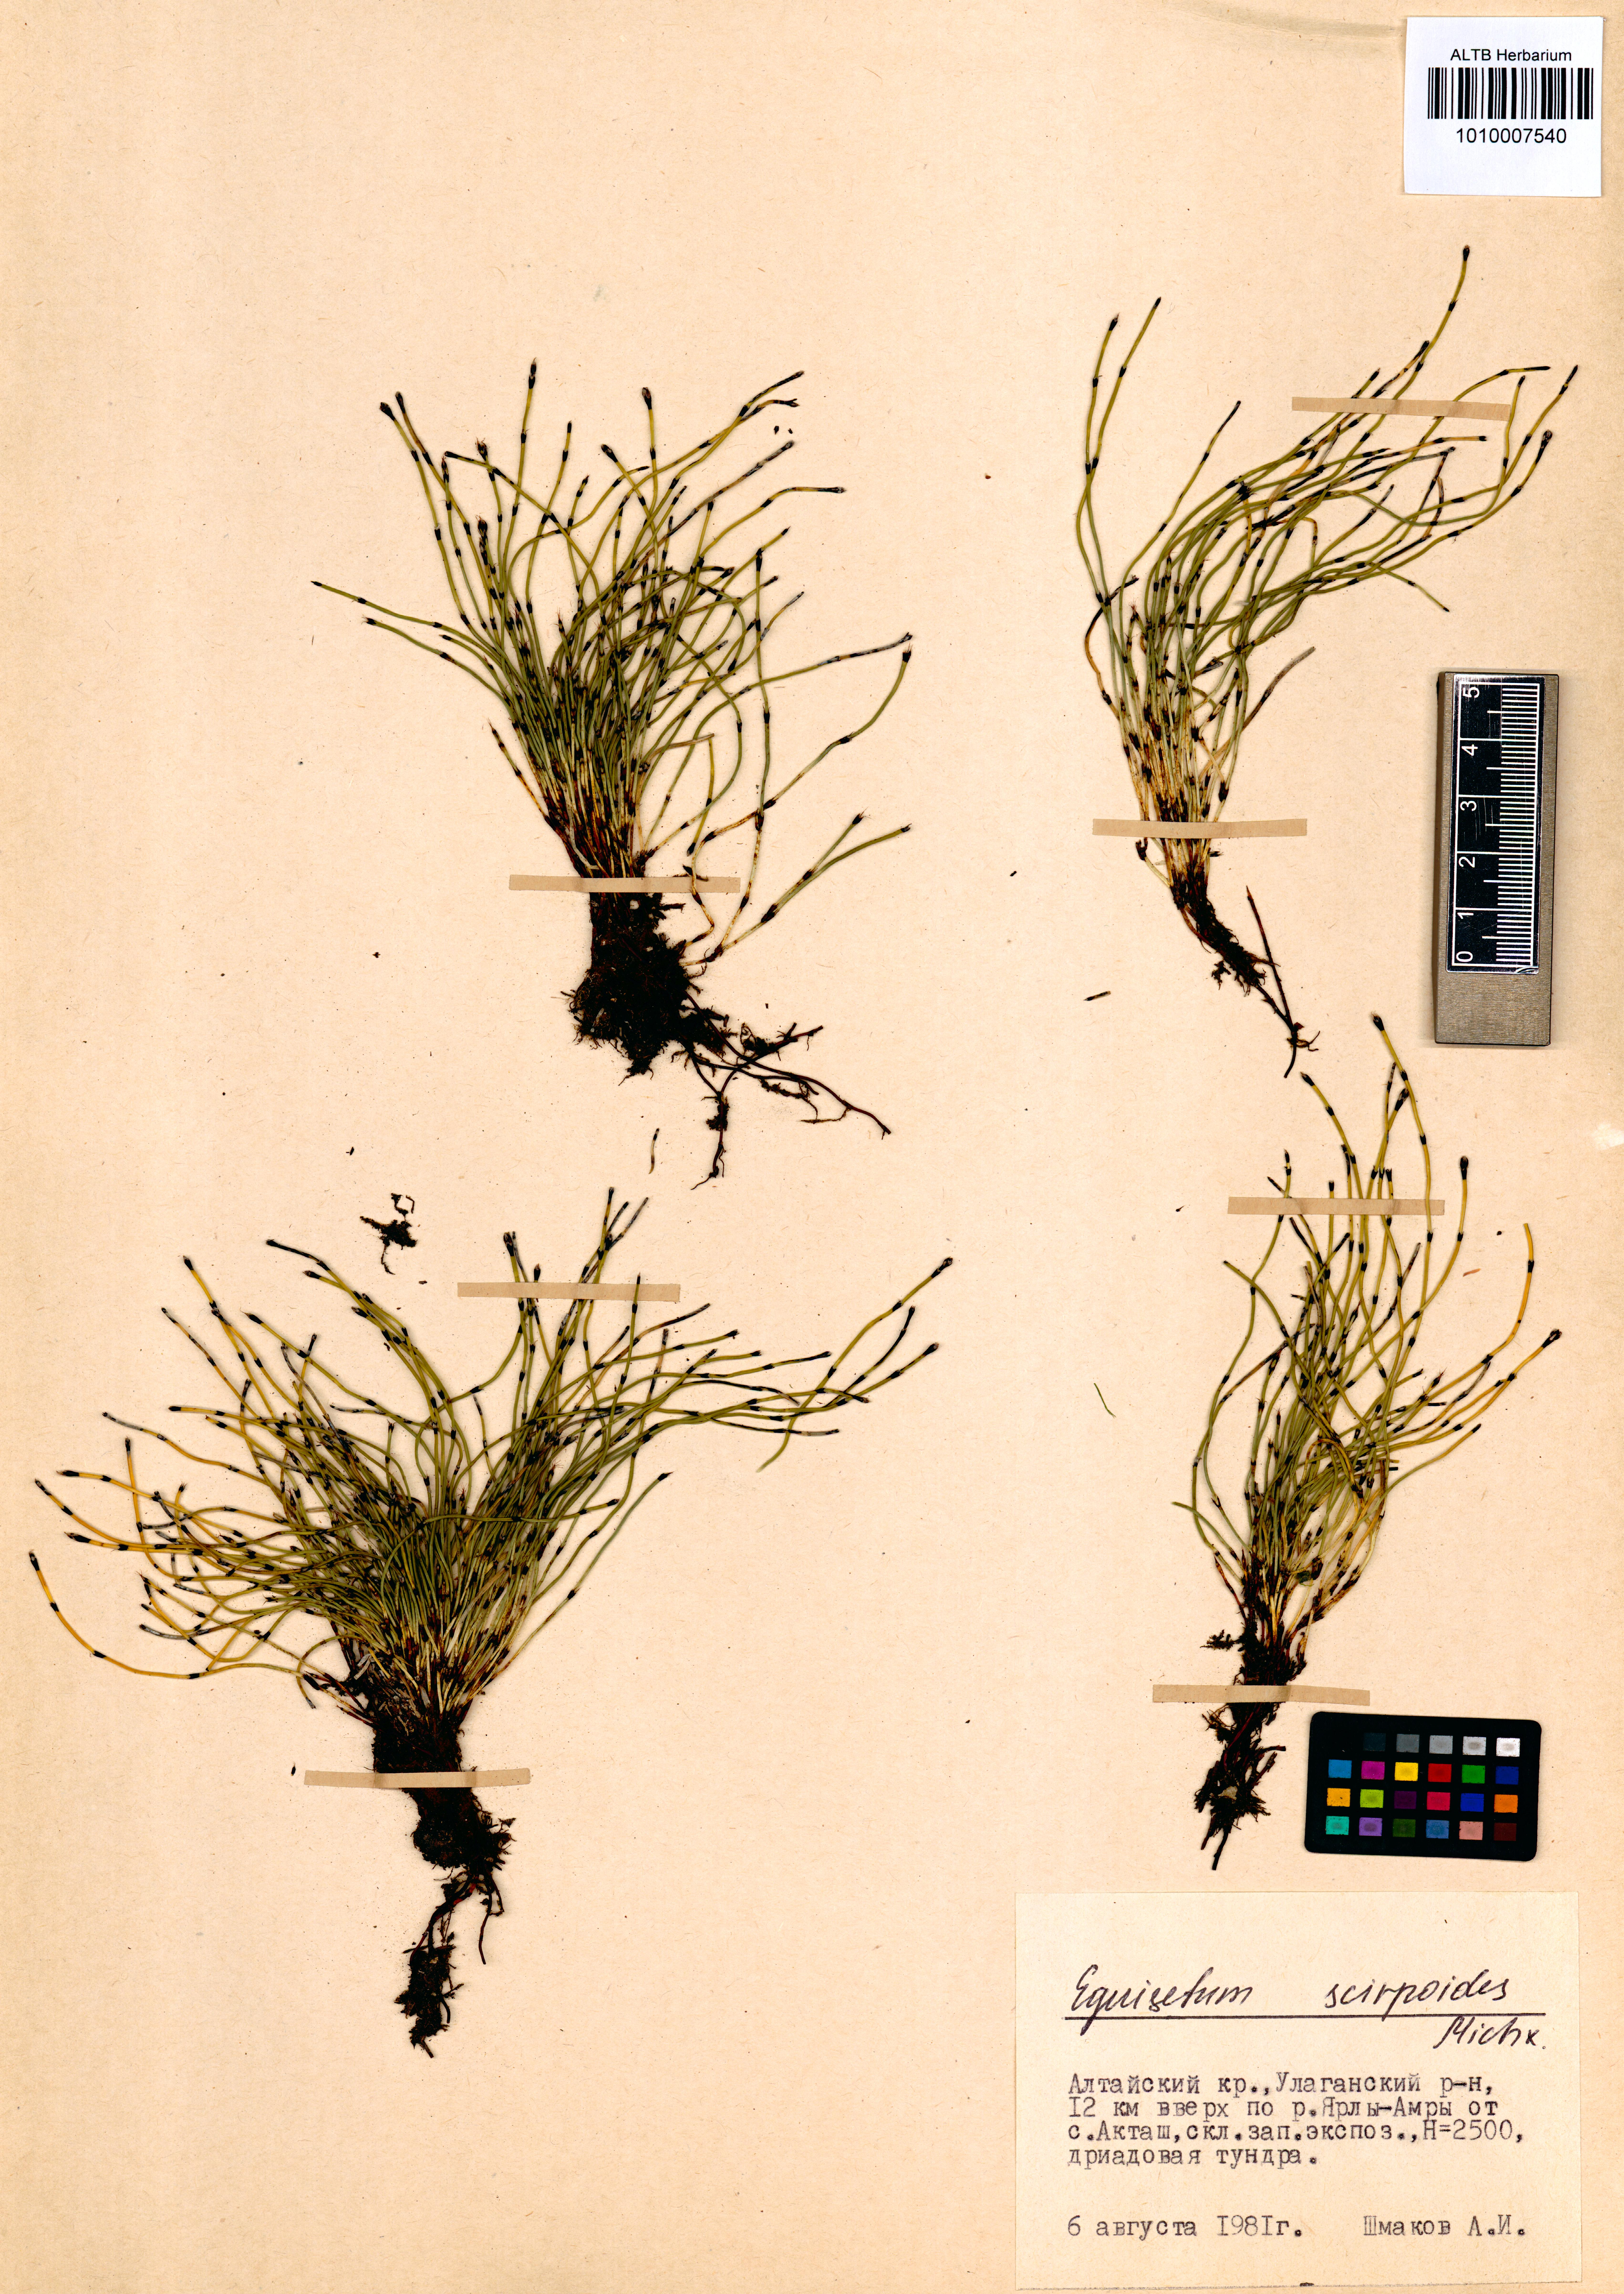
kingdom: Plantae
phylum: Tracheophyta
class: Polypodiopsida
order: Equisetales
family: Equisetaceae
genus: Equisetum
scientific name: Equisetum scirpoides
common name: Delicate horsetail
